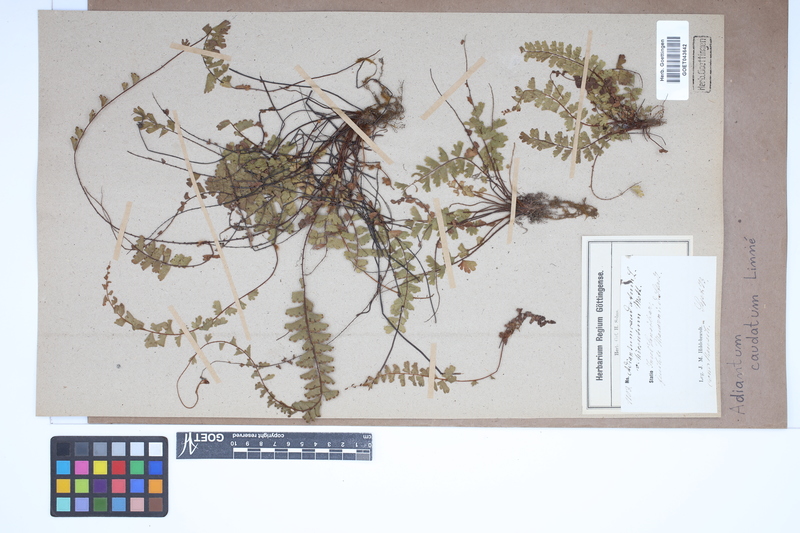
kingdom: Plantae
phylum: Tracheophyta
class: Polypodiopsida
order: Polypodiales
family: Pteridaceae
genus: Adiantum
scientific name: Adiantum caudatum
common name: Tailed maidenhair
